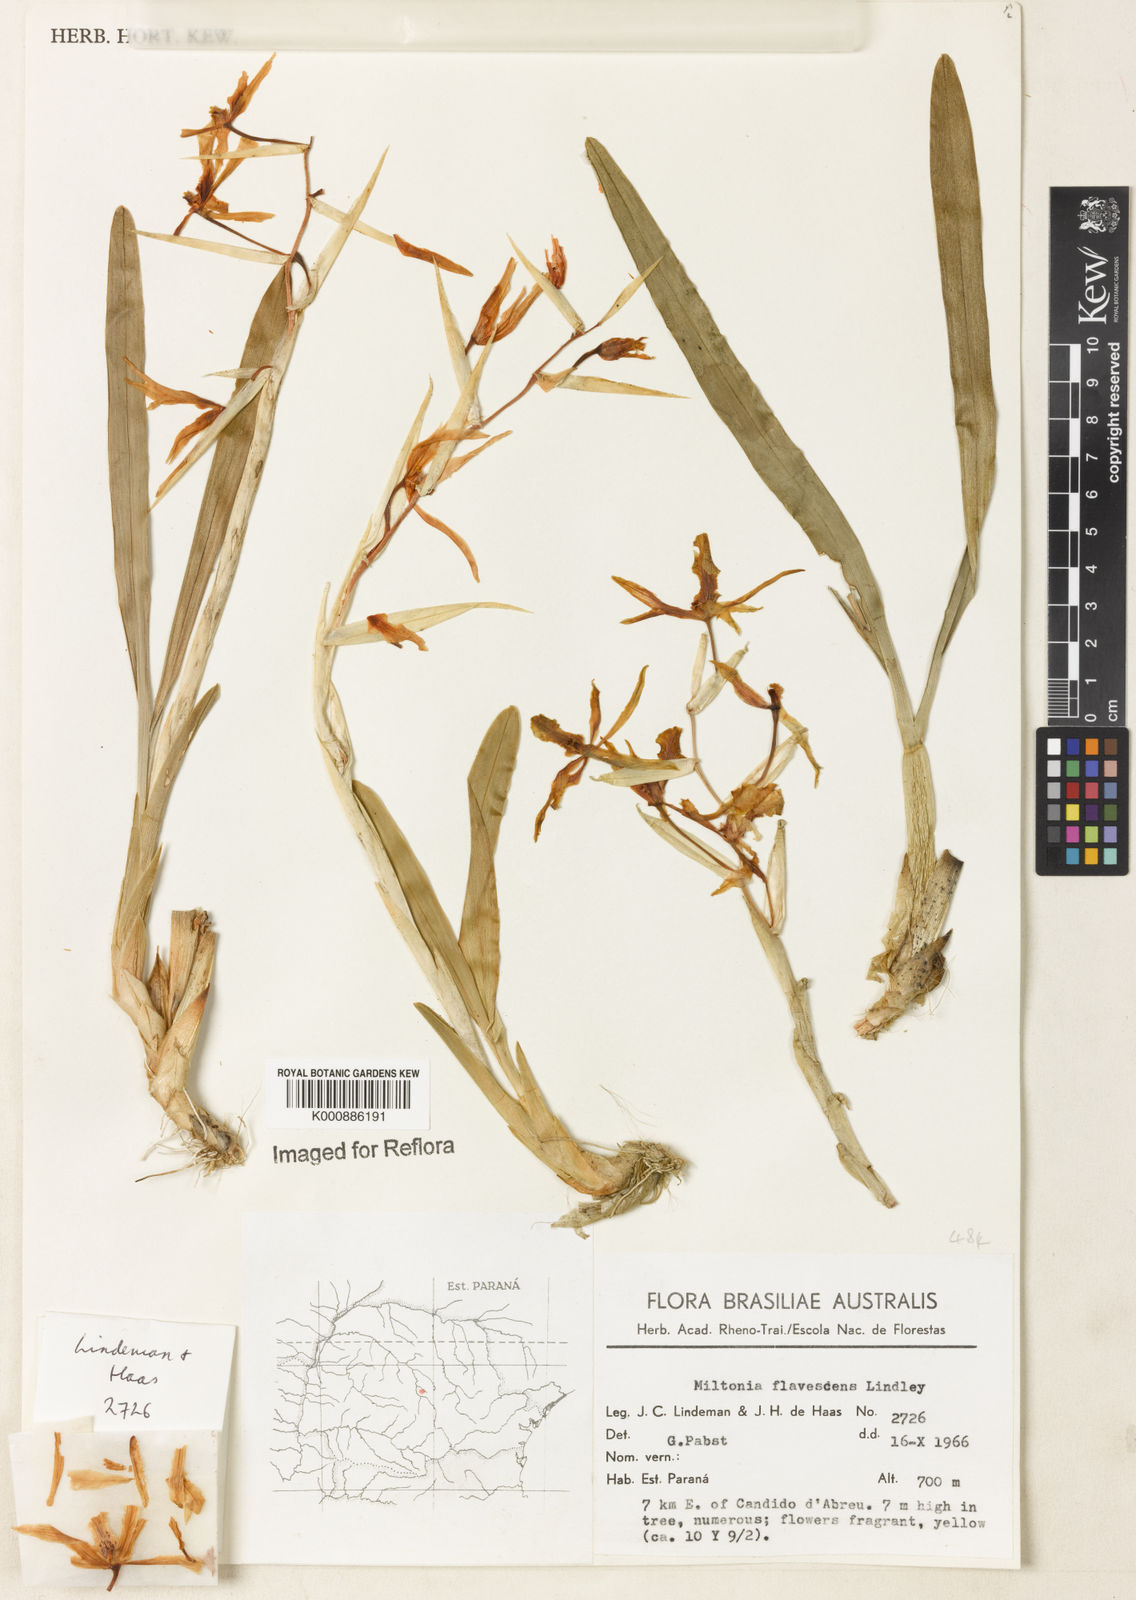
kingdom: Plantae
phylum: Tracheophyta
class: Liliopsida
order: Asparagales
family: Orchidaceae
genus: Miltonia
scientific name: Miltonia flavescens
